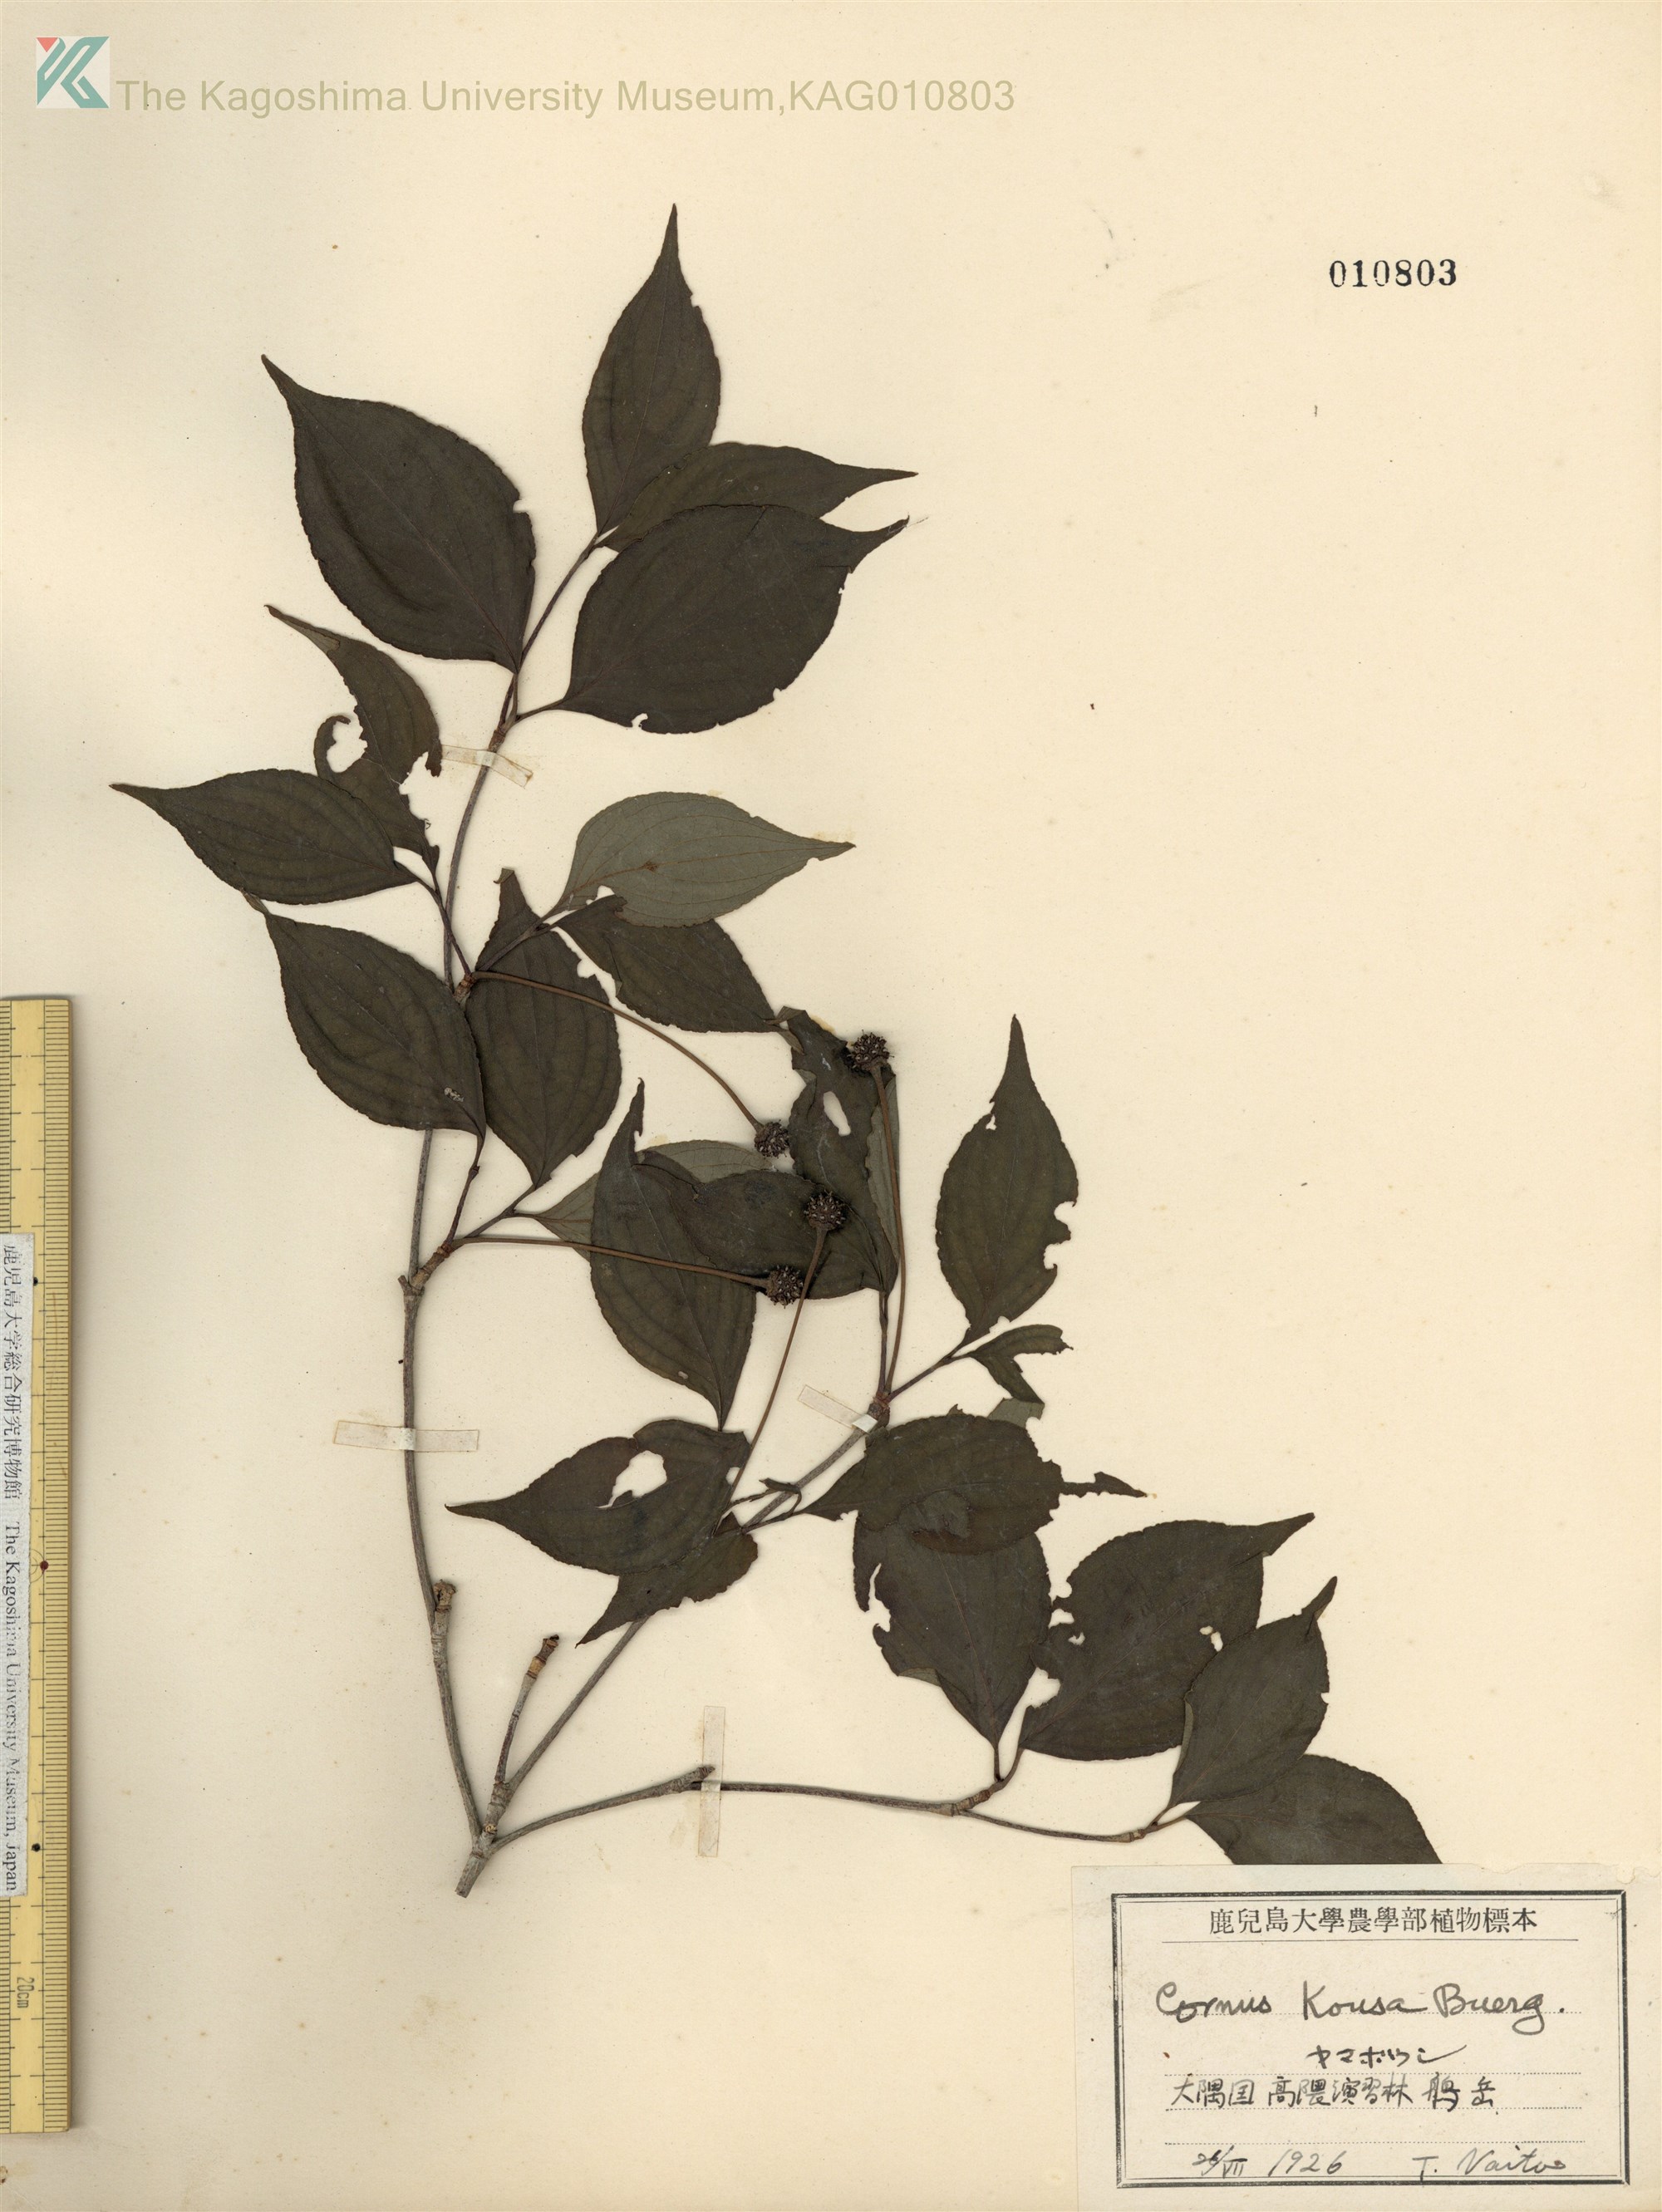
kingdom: Plantae
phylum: Tracheophyta
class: Magnoliopsida
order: Cornales
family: Cornaceae
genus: Cornus
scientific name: Cornus kousa
